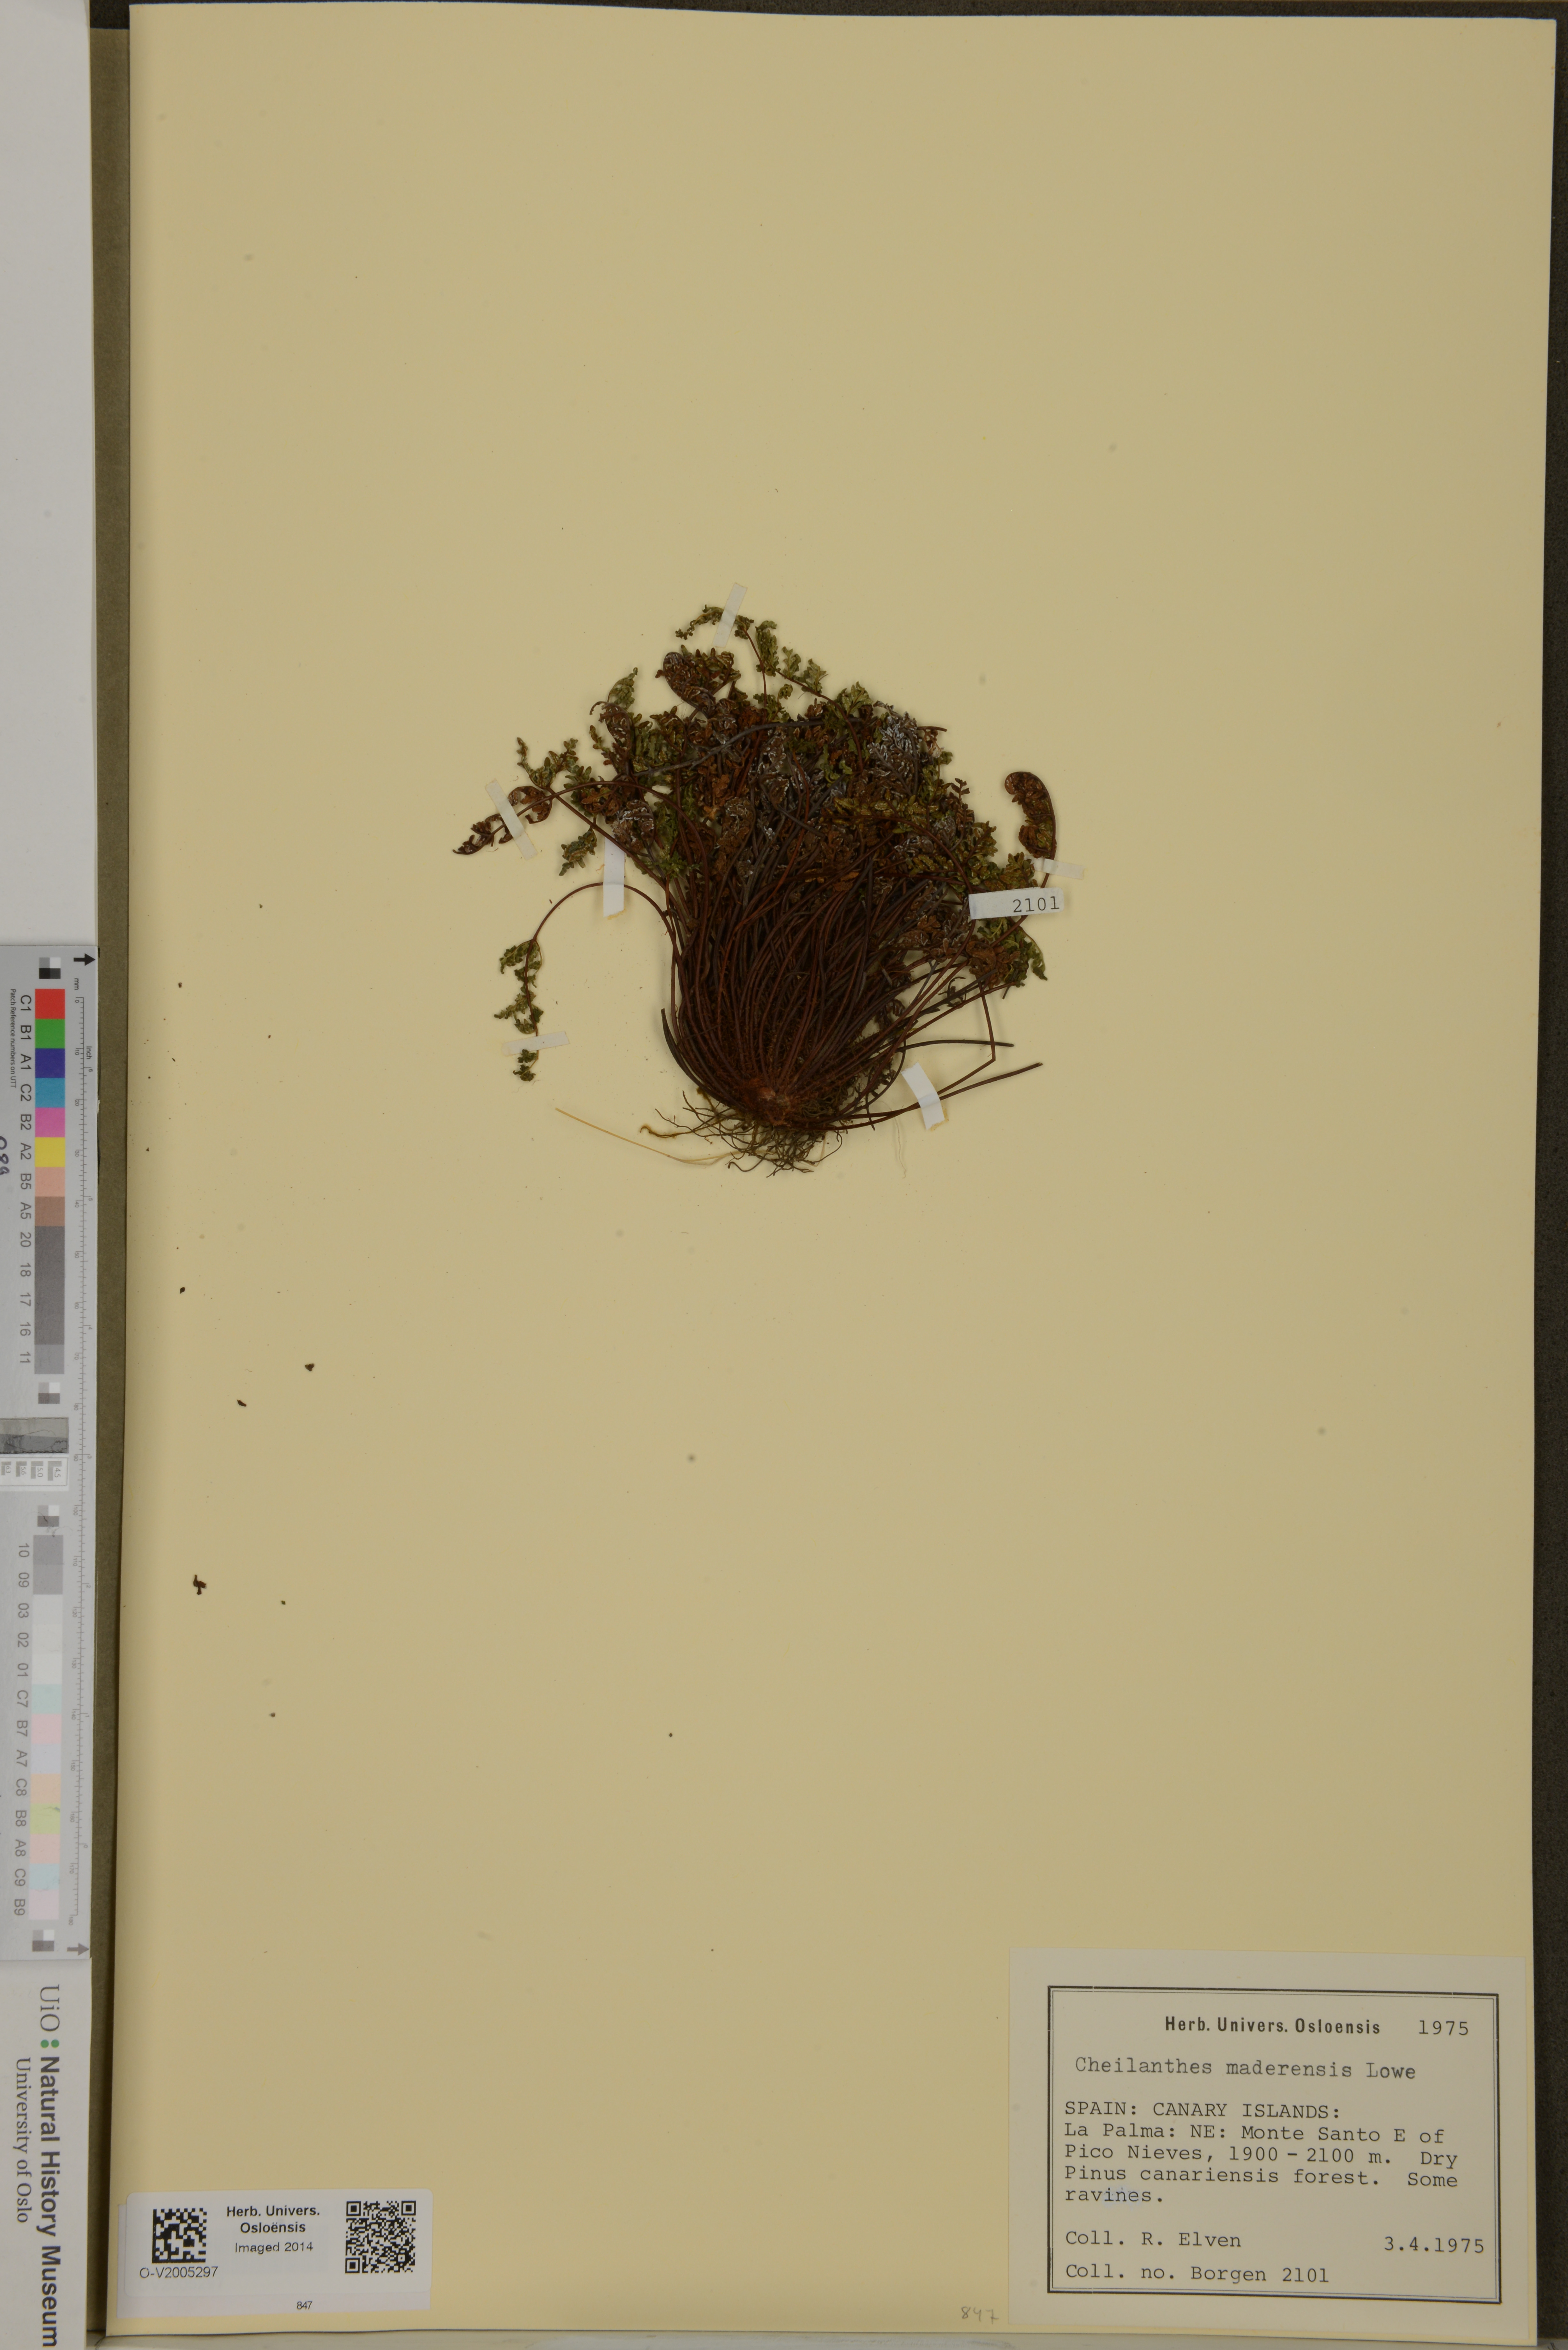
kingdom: Plantae
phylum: Tracheophyta
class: Polypodiopsida
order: Polypodiales
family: Pteridaceae
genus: Oeosporangium
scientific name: Oeosporangium pteridioides
